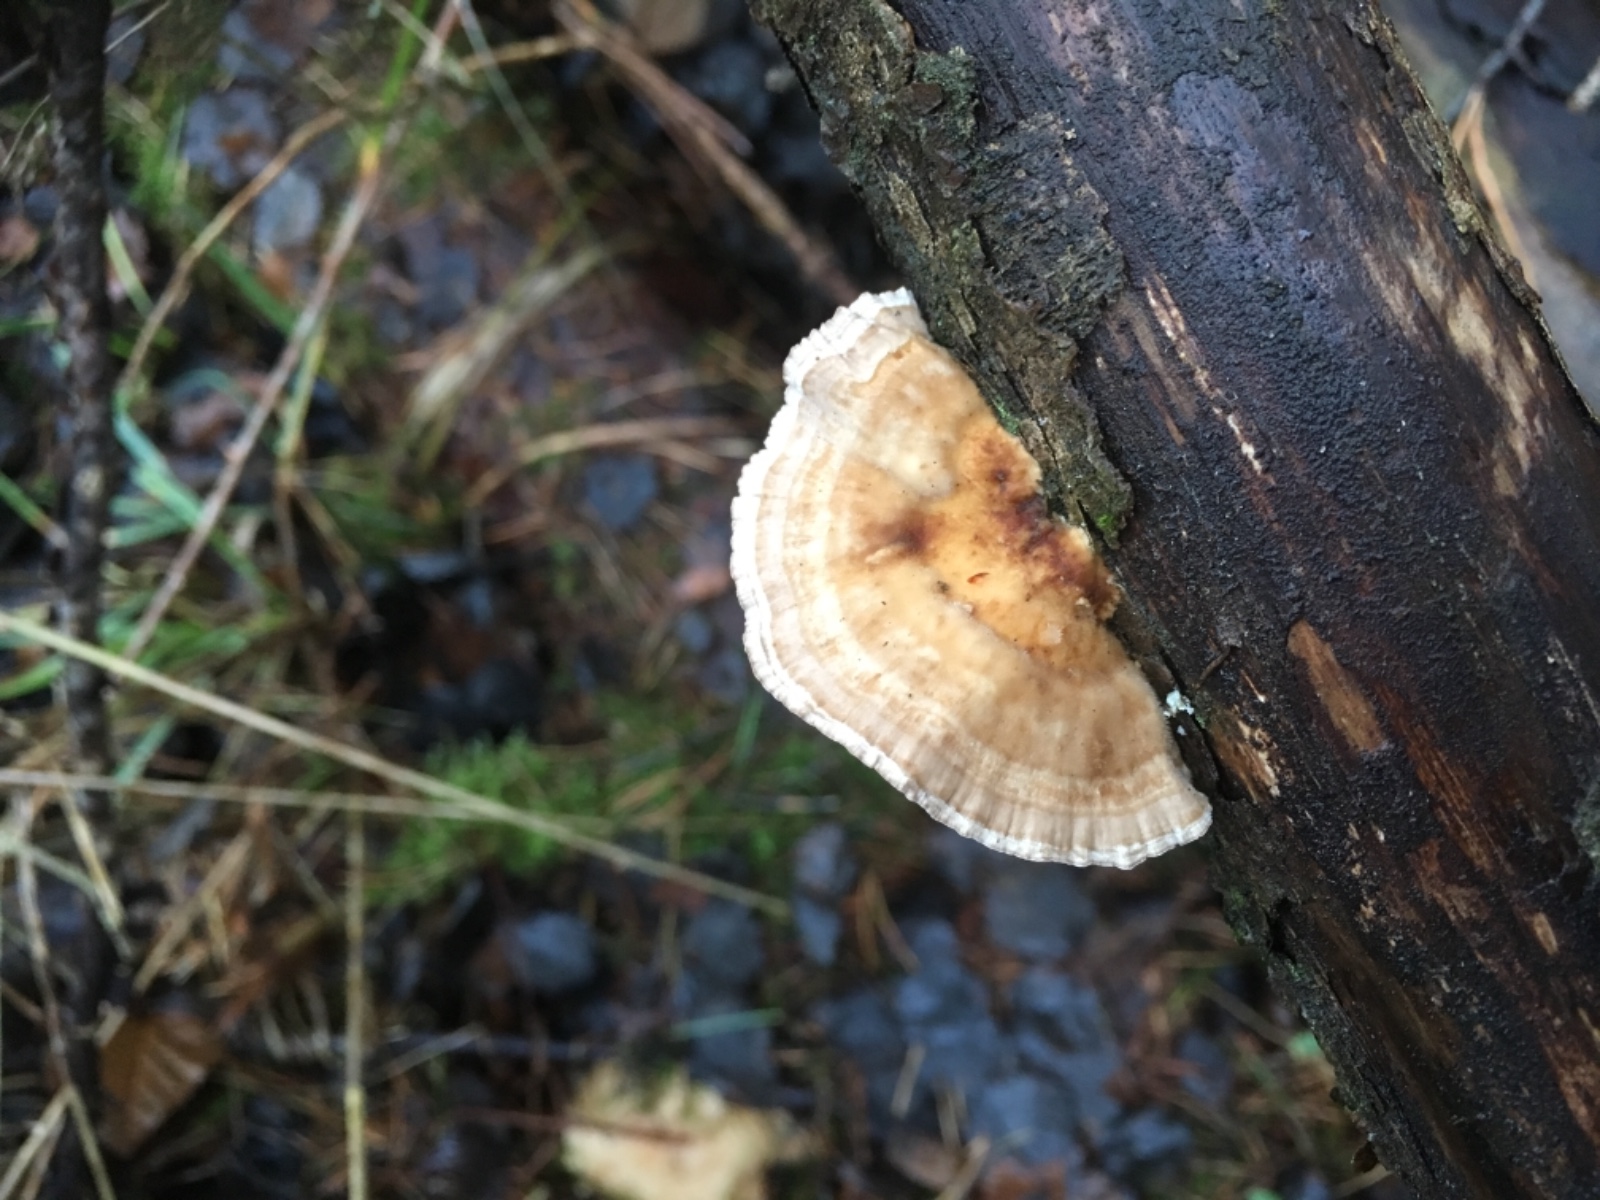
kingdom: Fungi
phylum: Basidiomycota
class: Agaricomycetes
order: Polyporales
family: Polyporaceae
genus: Trametes
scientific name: Trametes versicolor
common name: broget læderporesvamp
